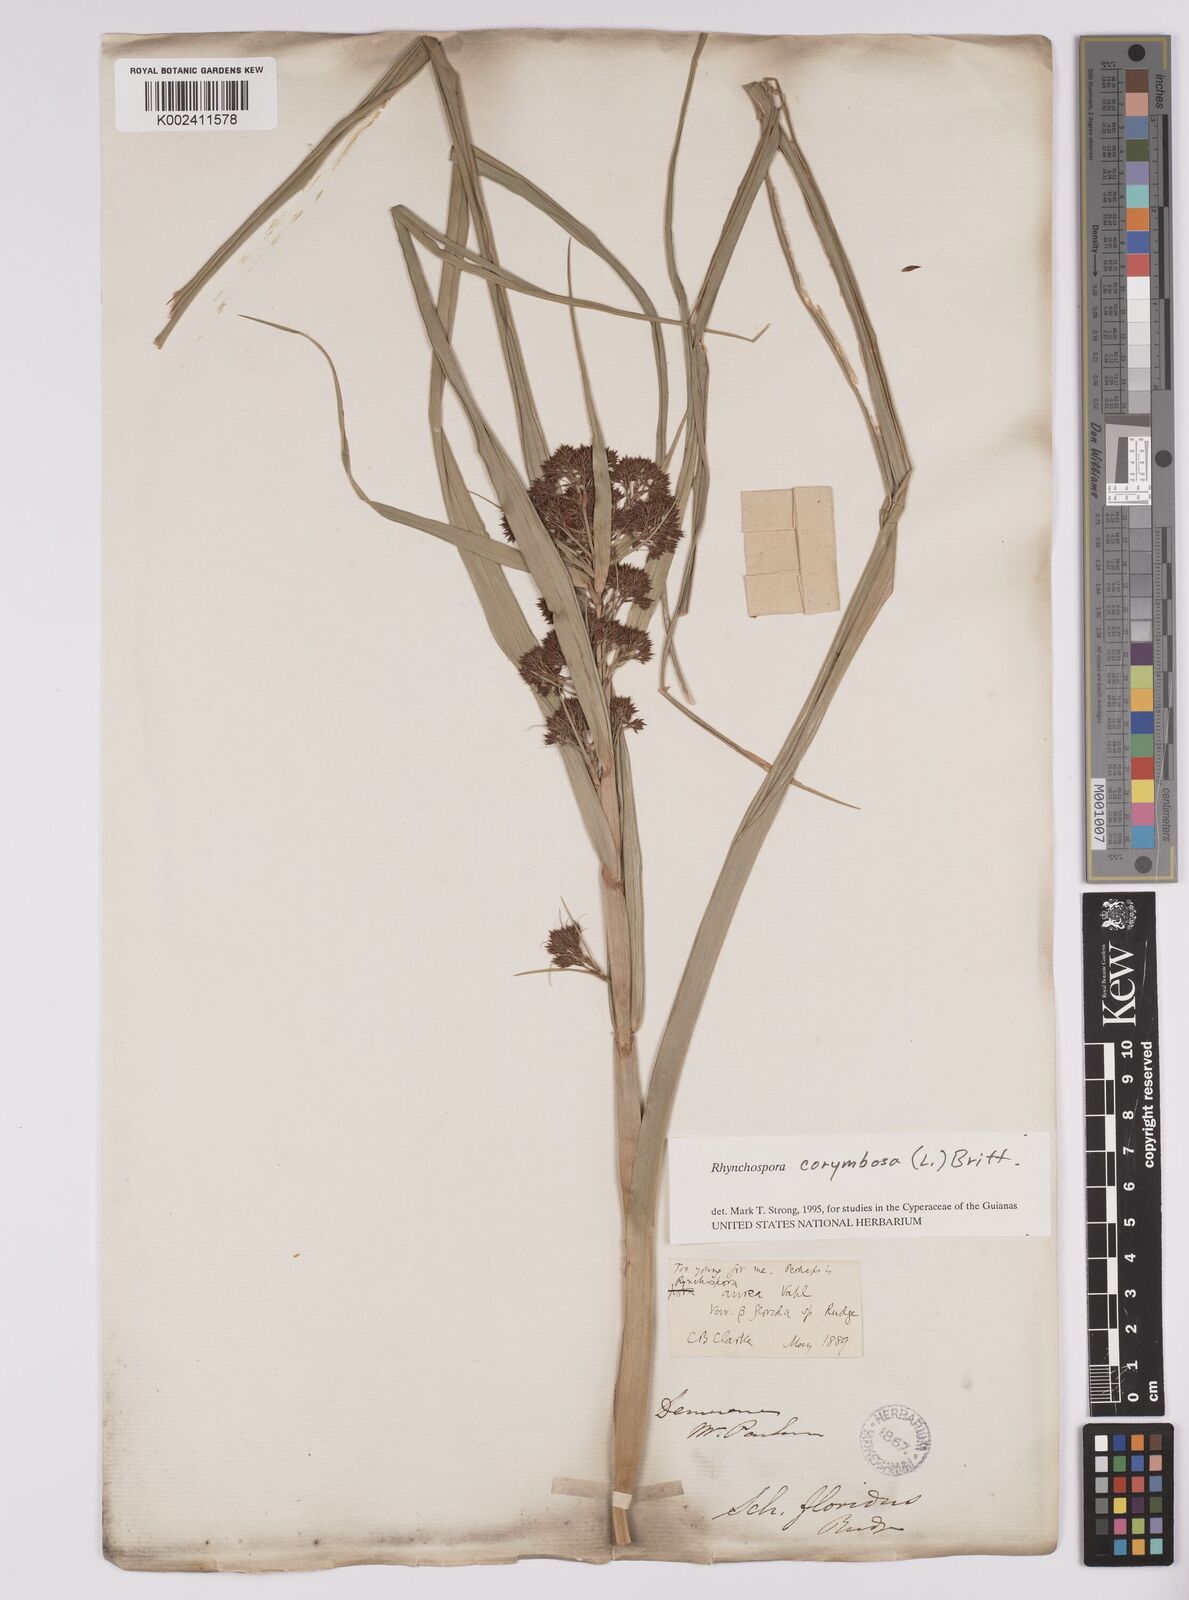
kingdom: Plantae
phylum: Tracheophyta
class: Liliopsida
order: Poales
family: Cyperaceae
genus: Rhynchospora
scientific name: Rhynchospora corymbosa
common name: Golden beak sedge
